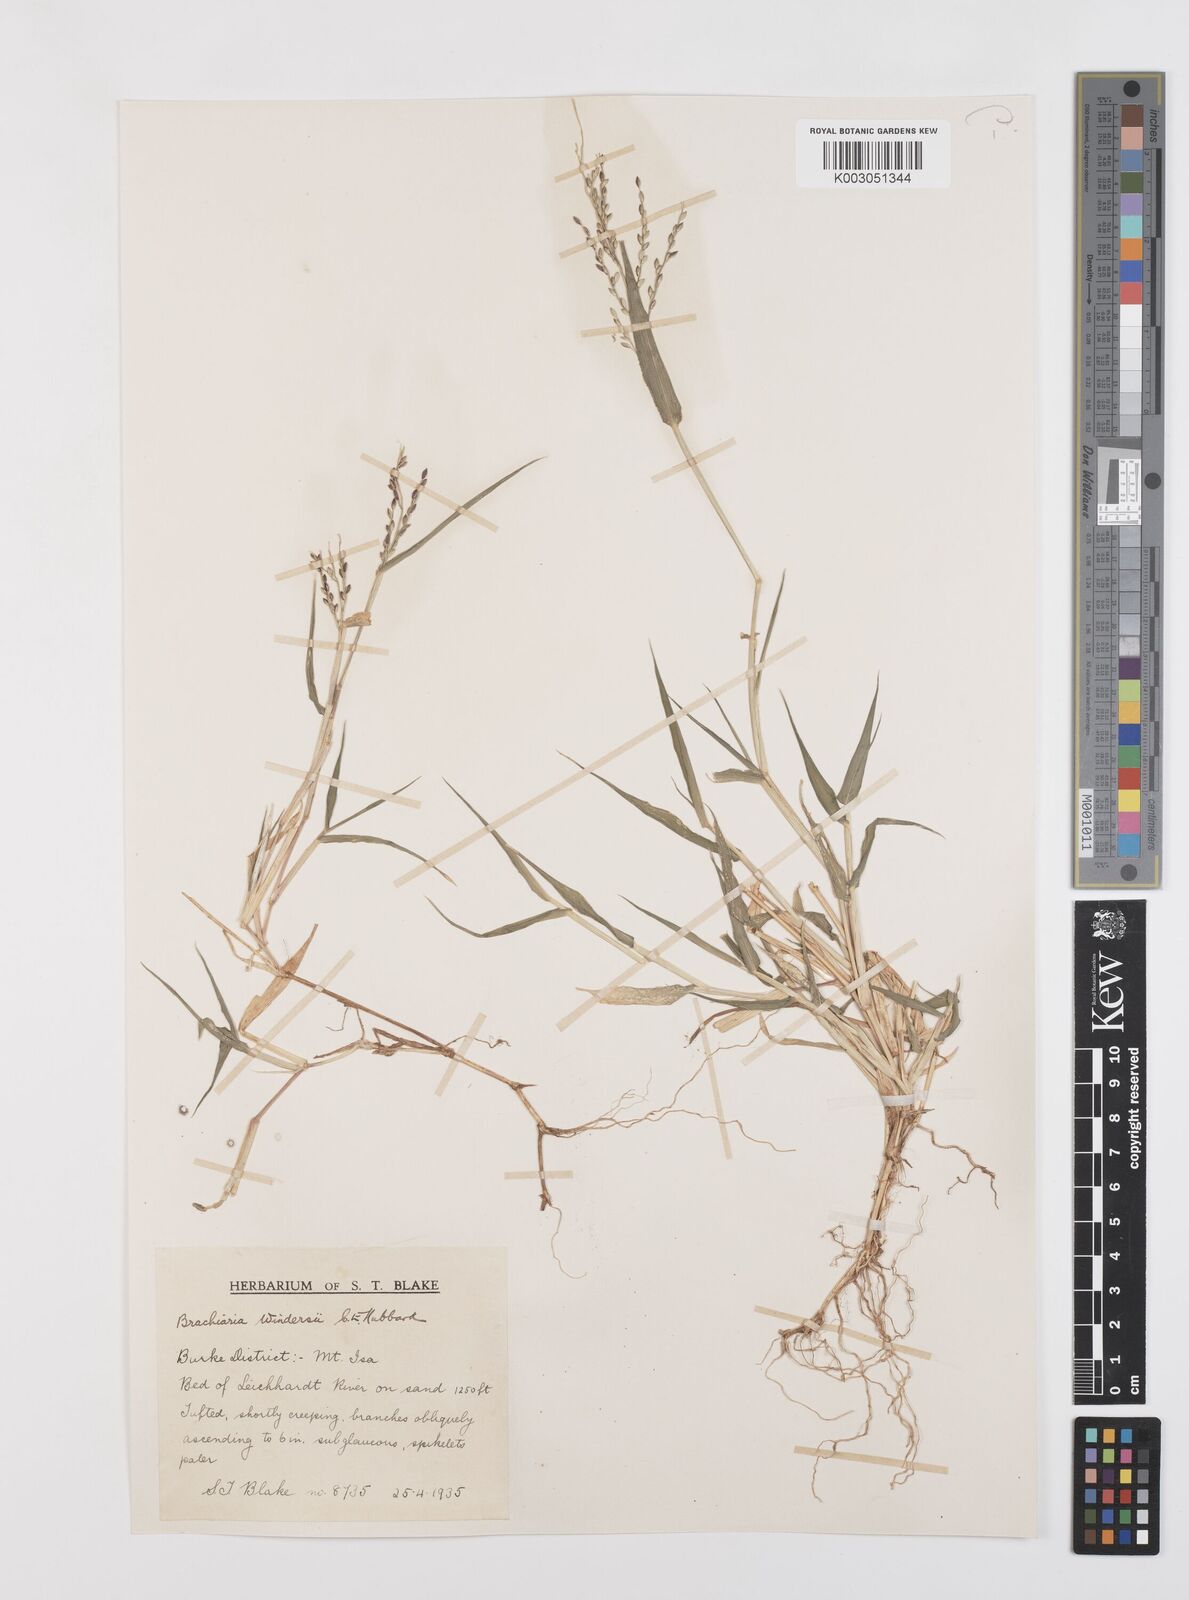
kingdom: Plantae
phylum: Tracheophyta
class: Liliopsida
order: Poales
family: Poaceae
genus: Urochloa
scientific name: Urochloa whiteana
